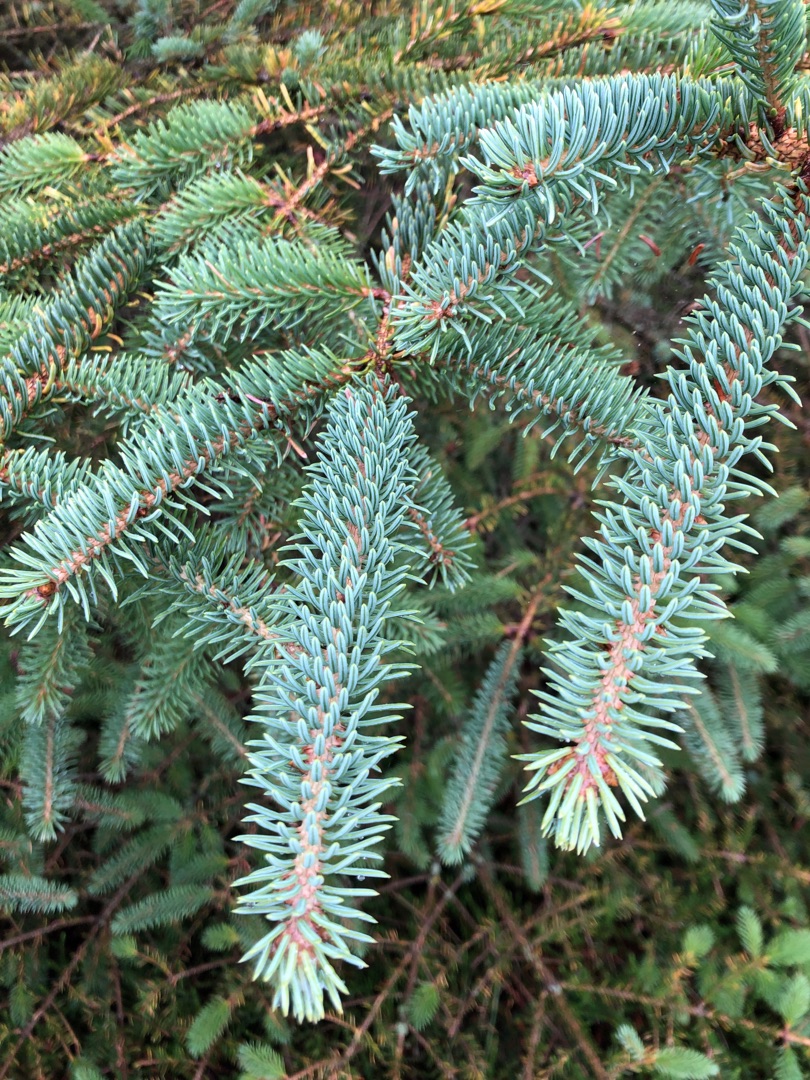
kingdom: Plantae
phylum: Tracheophyta
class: Pinopsida
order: Pinales
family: Pinaceae
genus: Picea
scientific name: Picea glauca
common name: Hvid-gran
